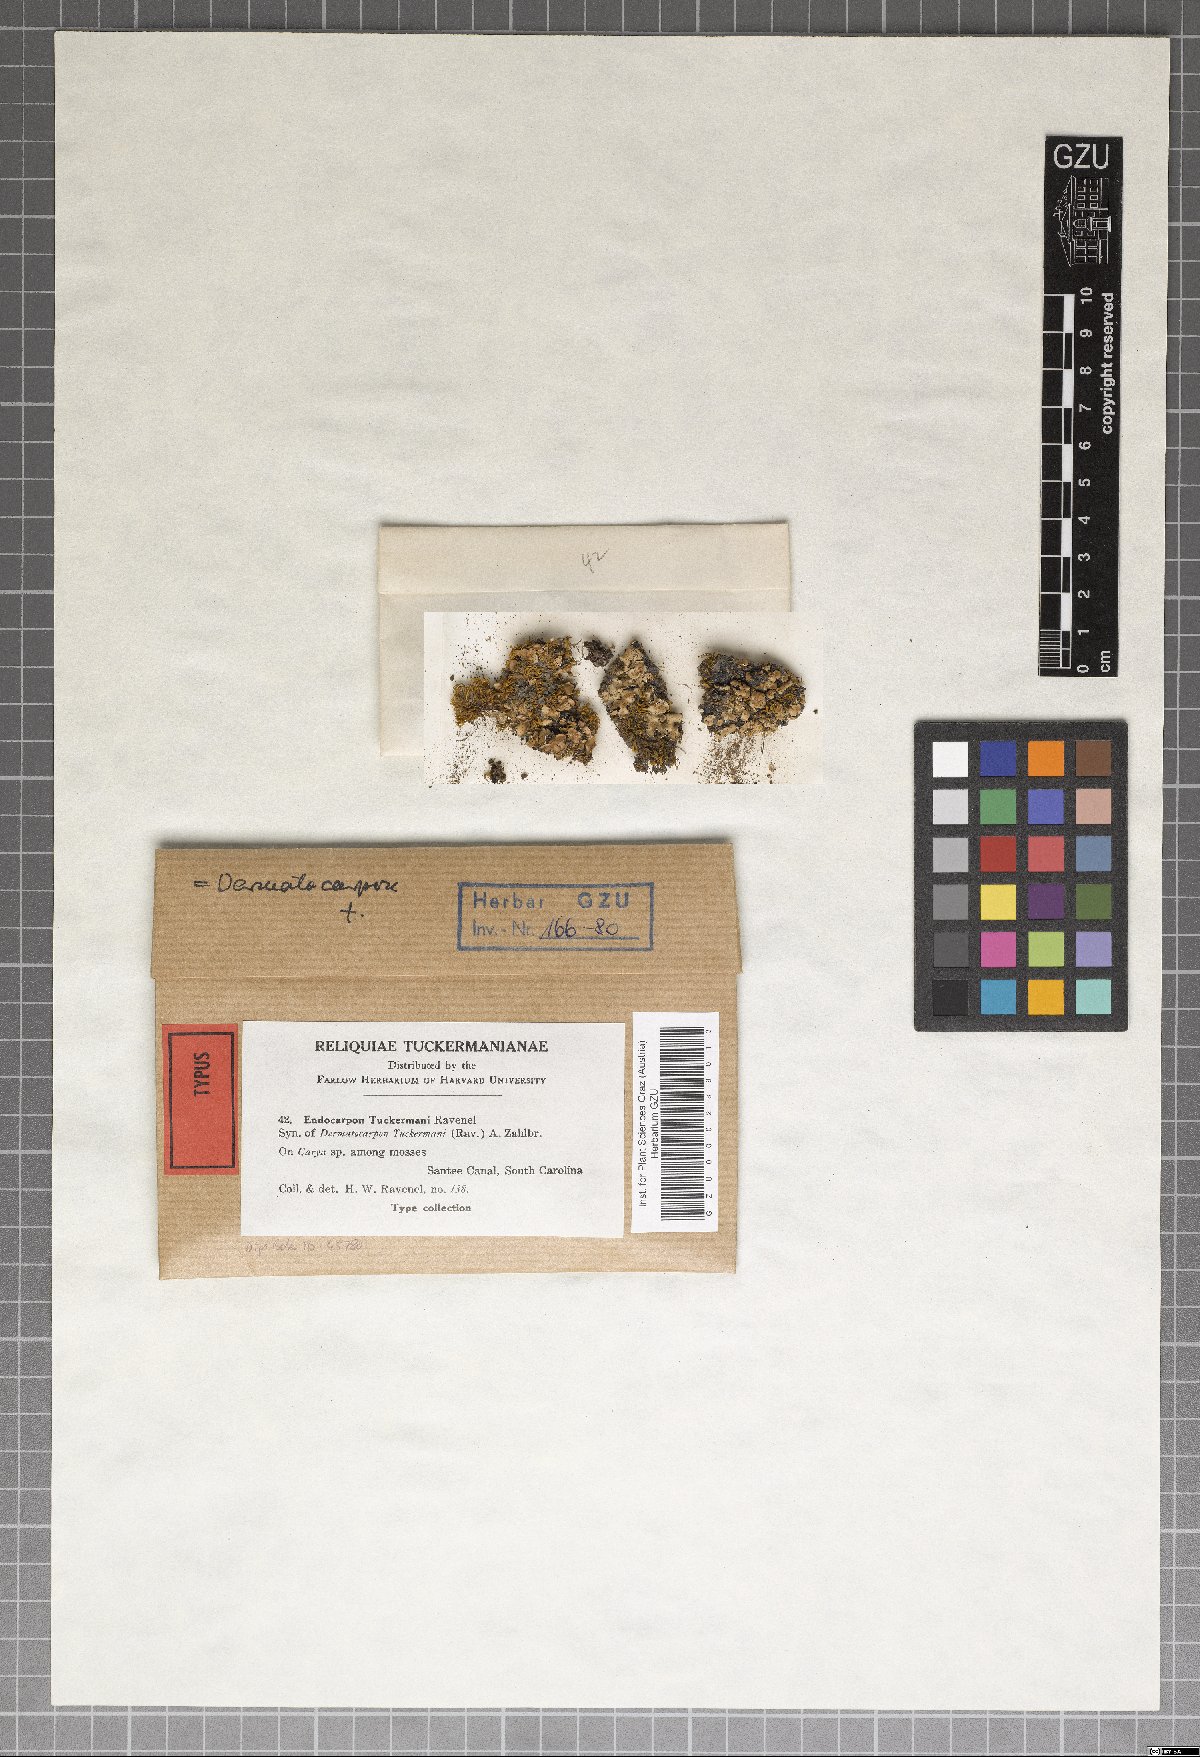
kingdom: Fungi
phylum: Ascomycota
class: Eurotiomycetes
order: Verrucariales
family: Verrucariaceae
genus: Placidium
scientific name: Placidium tuckermanii
